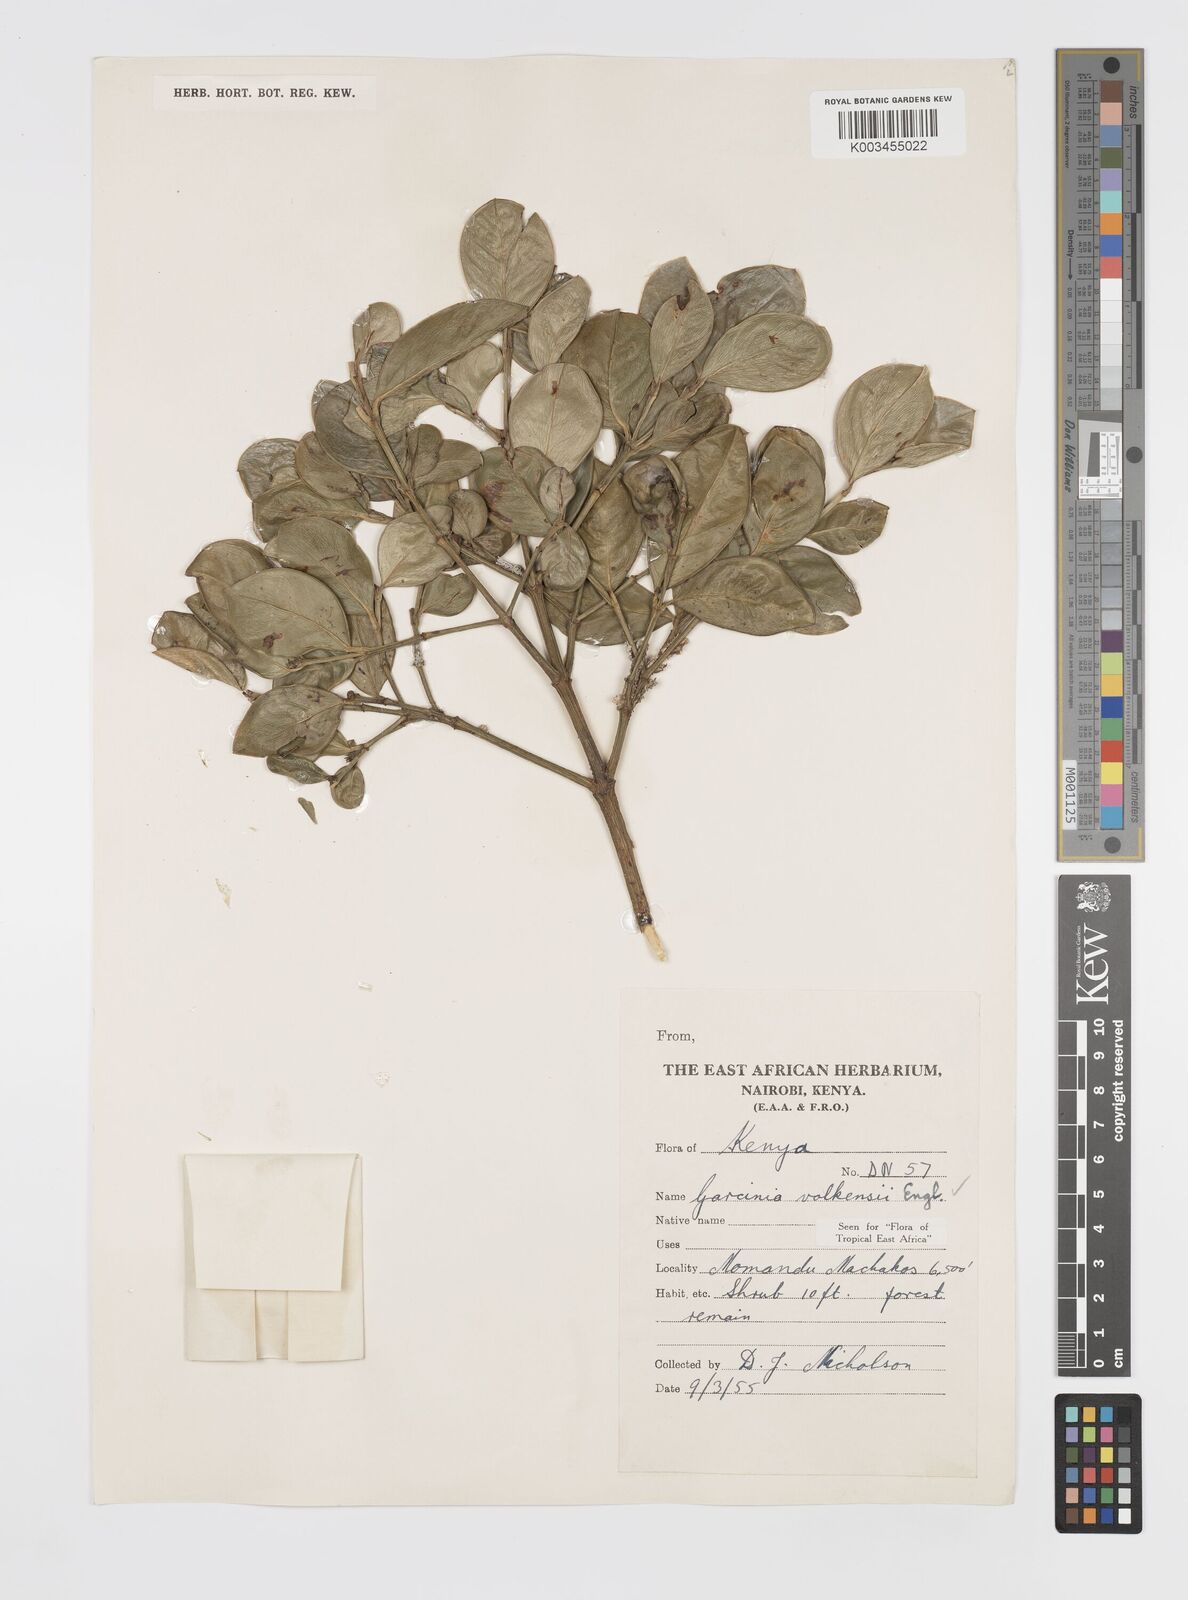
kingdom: Plantae
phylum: Tracheophyta
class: Magnoliopsida
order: Malpighiales
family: Clusiaceae
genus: Garcinia
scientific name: Garcinia volkensii
